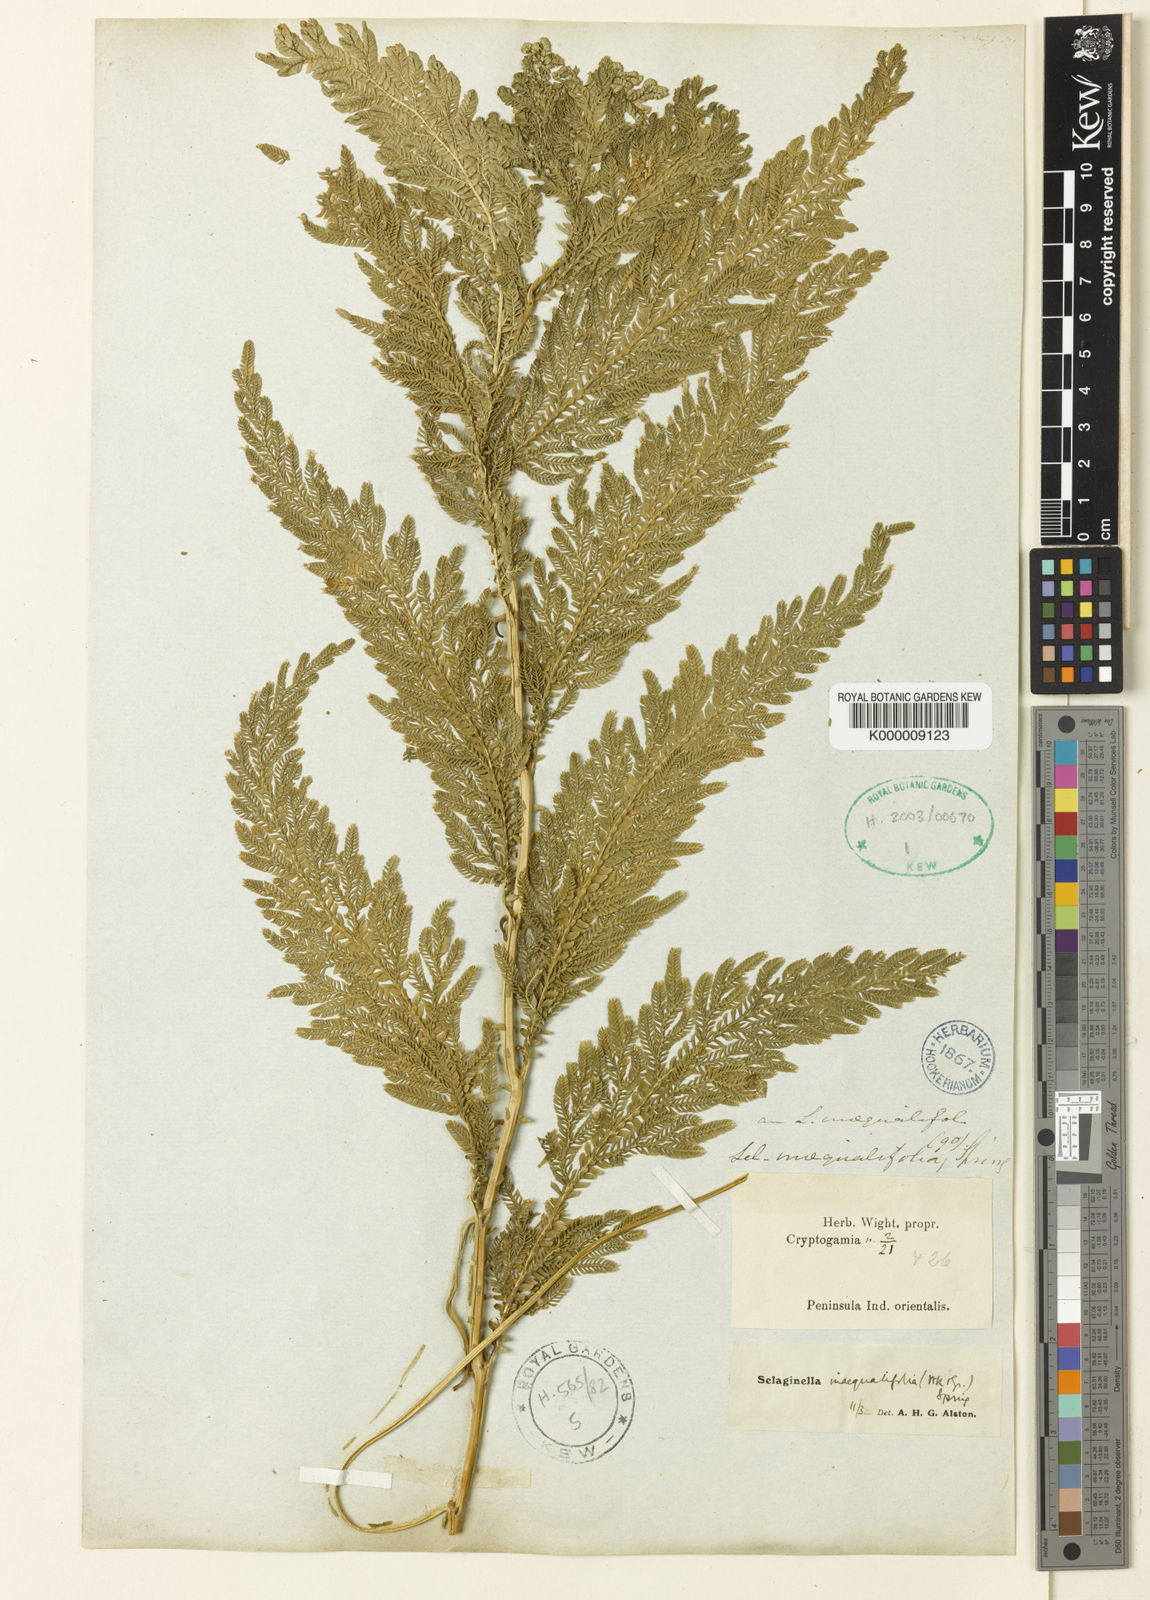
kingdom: Plantae
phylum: Tracheophyta
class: Lycopodiopsida
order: Selaginellales
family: Selaginellaceae
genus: Selaginella
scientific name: Selaginella inaequalifolia
